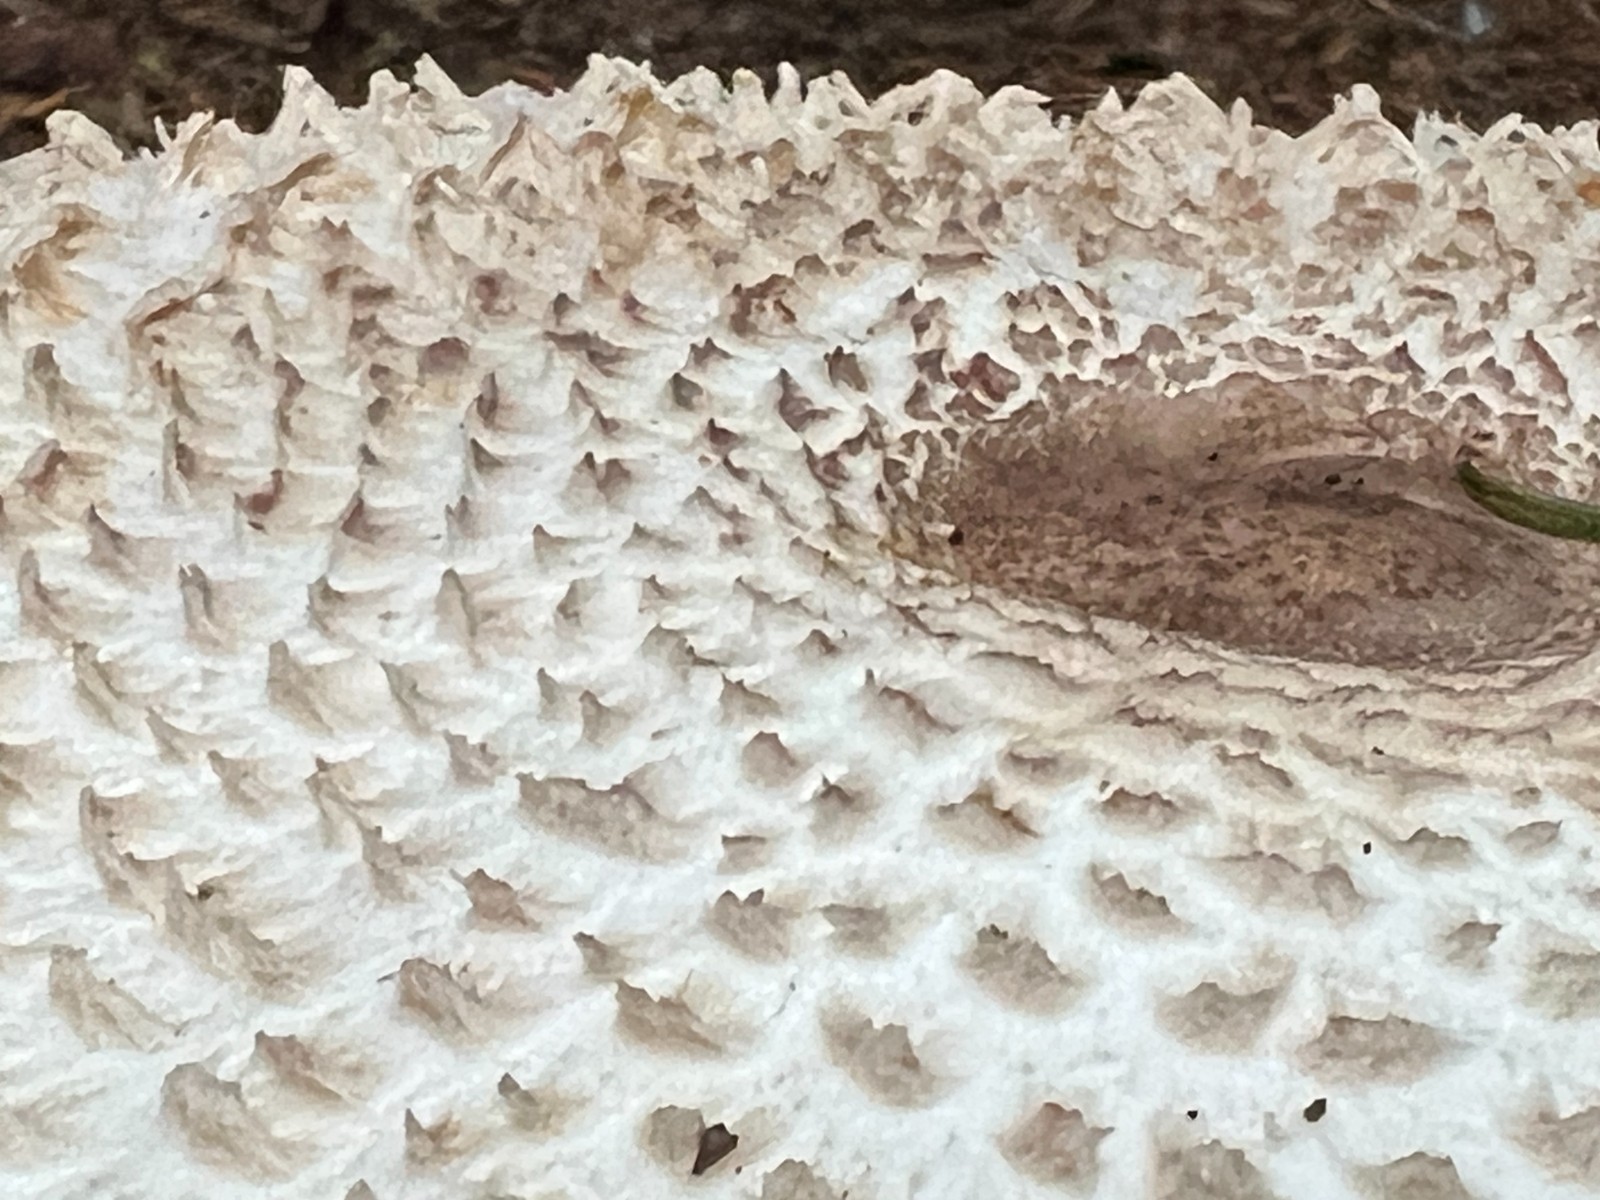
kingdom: Fungi
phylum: Basidiomycota
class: Agaricomycetes
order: Agaricales
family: Agaricaceae
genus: Leucoagaricus
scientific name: Leucoagaricus nympharum
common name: gran-silkehat
